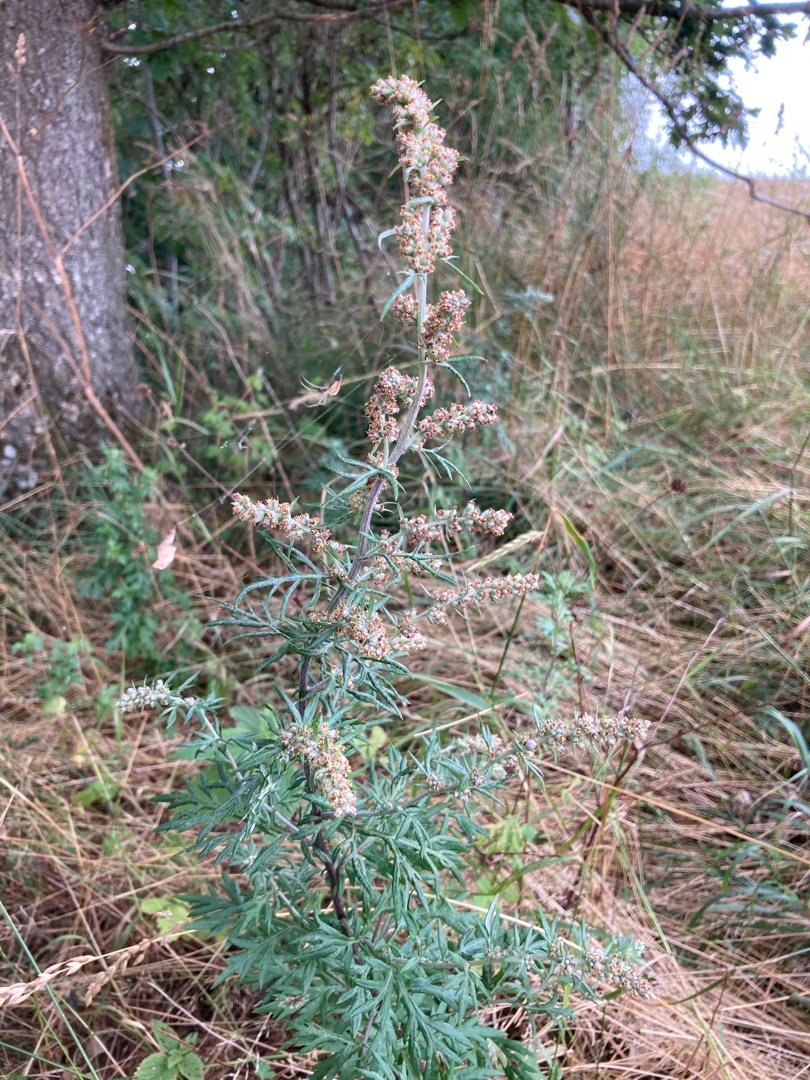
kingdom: Plantae
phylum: Tracheophyta
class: Magnoliopsida
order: Asterales
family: Asteraceae
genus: Artemisia
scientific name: Artemisia vulgaris
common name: Grå-bynke
